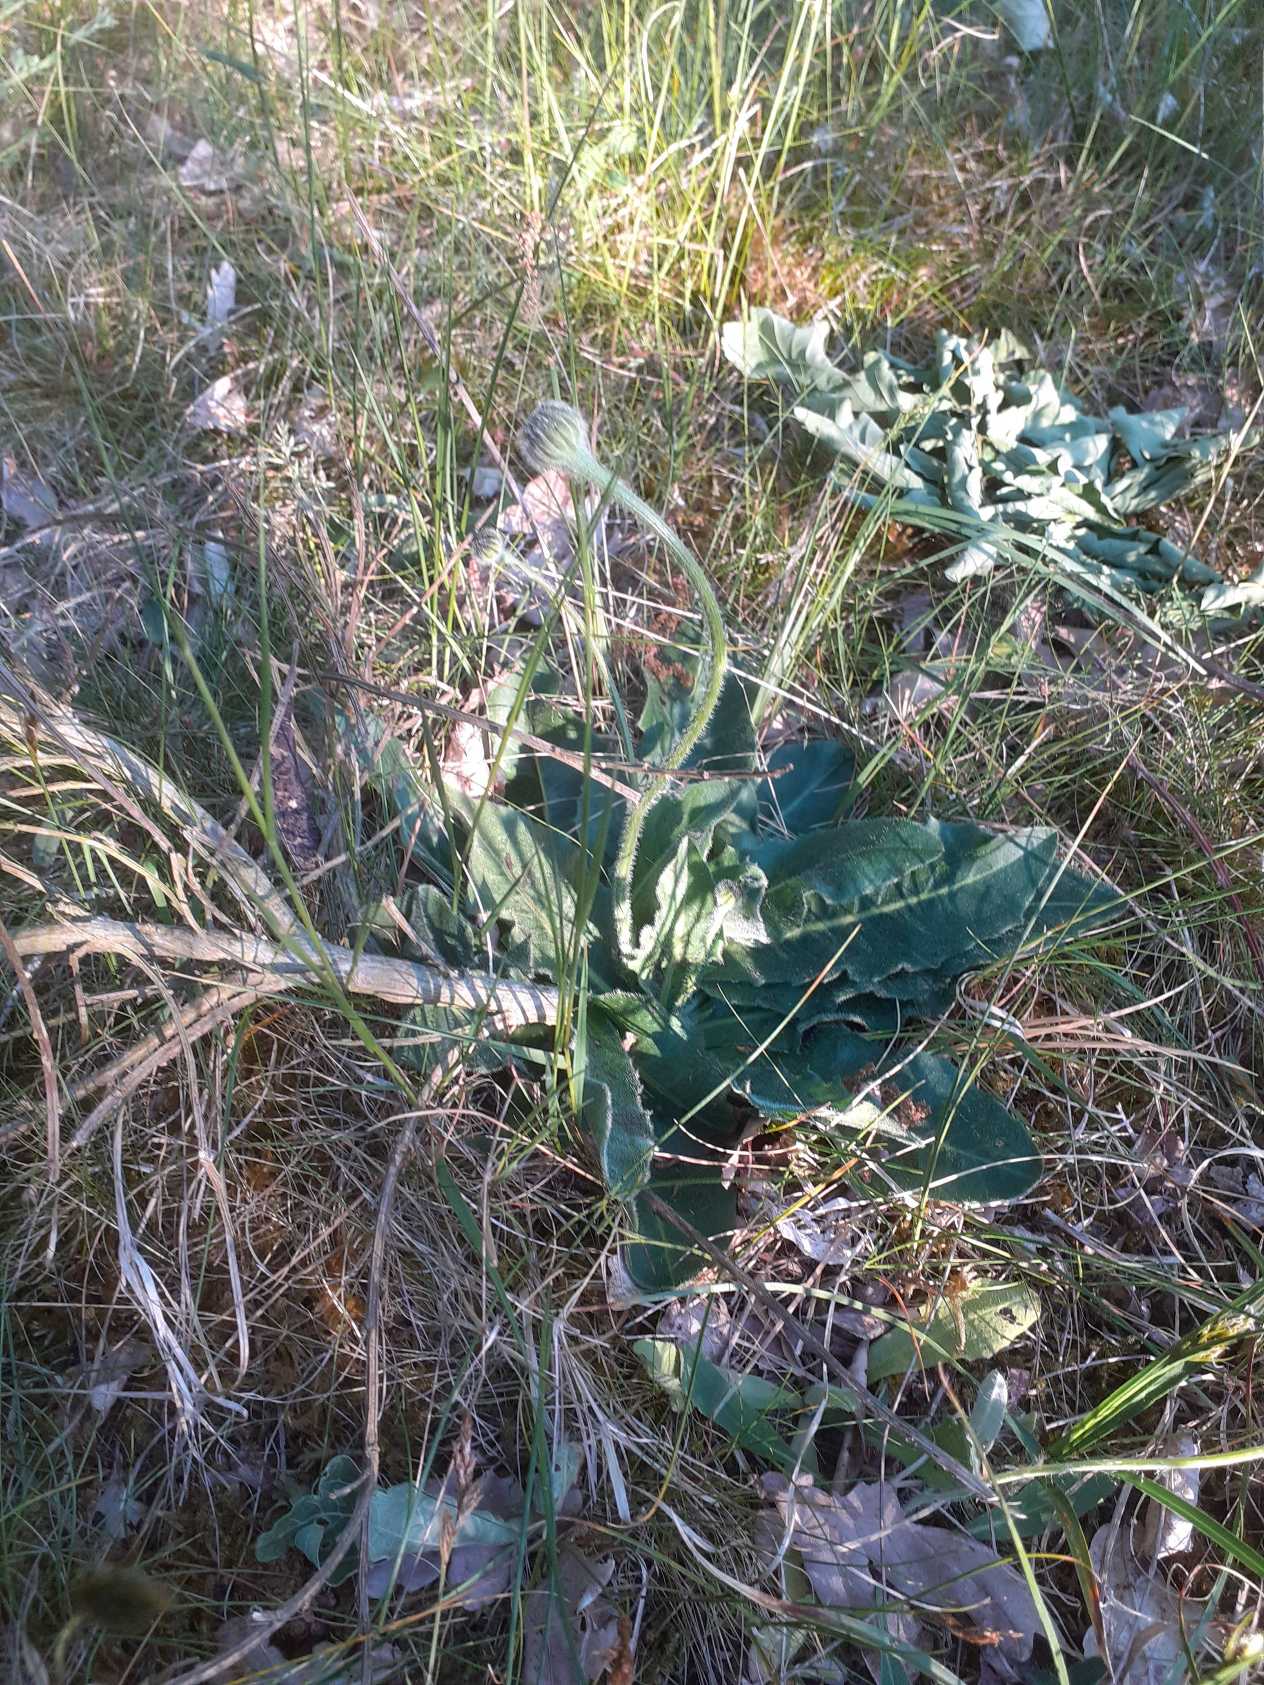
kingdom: Plantae
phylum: Tracheophyta
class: Magnoliopsida
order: Asterales
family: Asteraceae
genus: Trommsdorffia
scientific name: Trommsdorffia maculata
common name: Plettet kongepen
